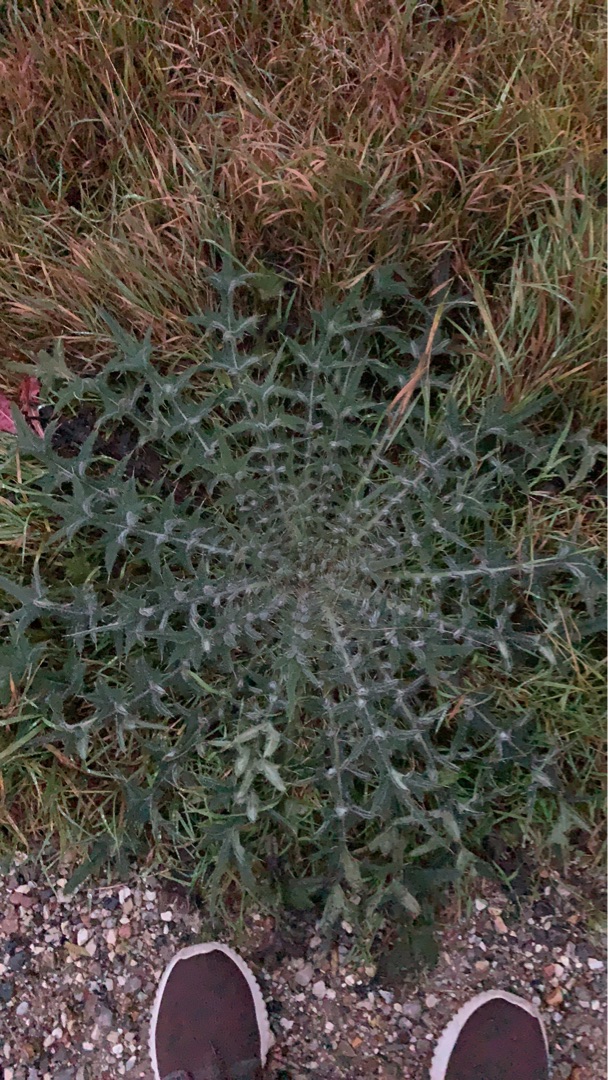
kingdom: Plantae
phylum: Tracheophyta
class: Magnoliopsida
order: Asterales
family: Asteraceae
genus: Cirsium
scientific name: Cirsium vulgare
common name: Horse-tidsel
